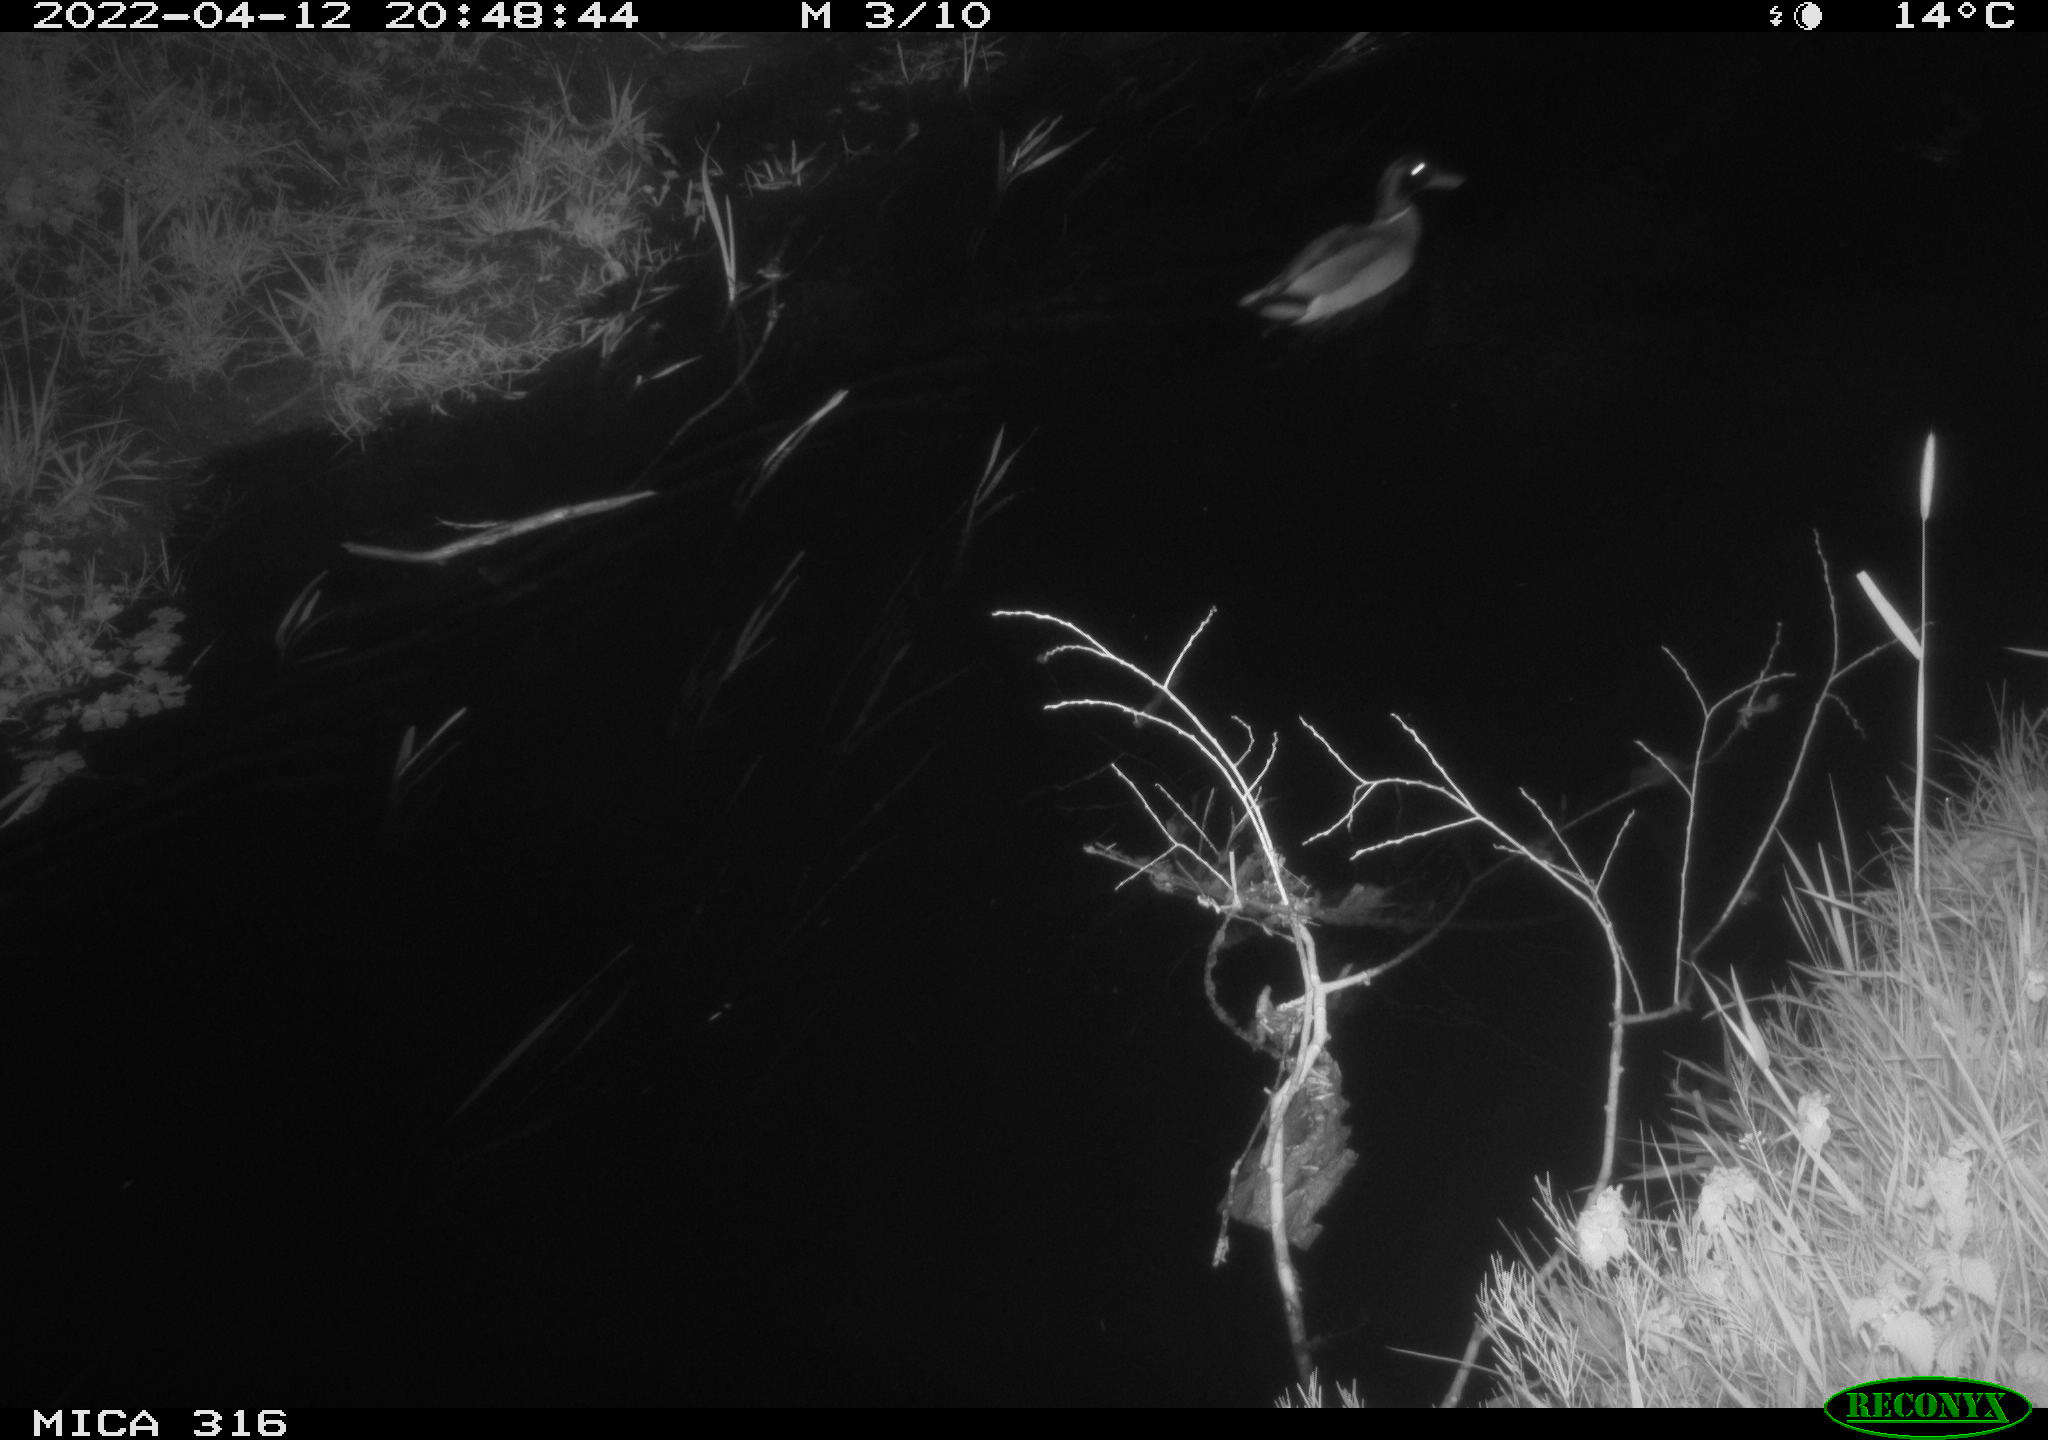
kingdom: Animalia
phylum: Chordata
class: Aves
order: Anseriformes
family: Anatidae
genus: Anas
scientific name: Anas platyrhynchos
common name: Mallard
